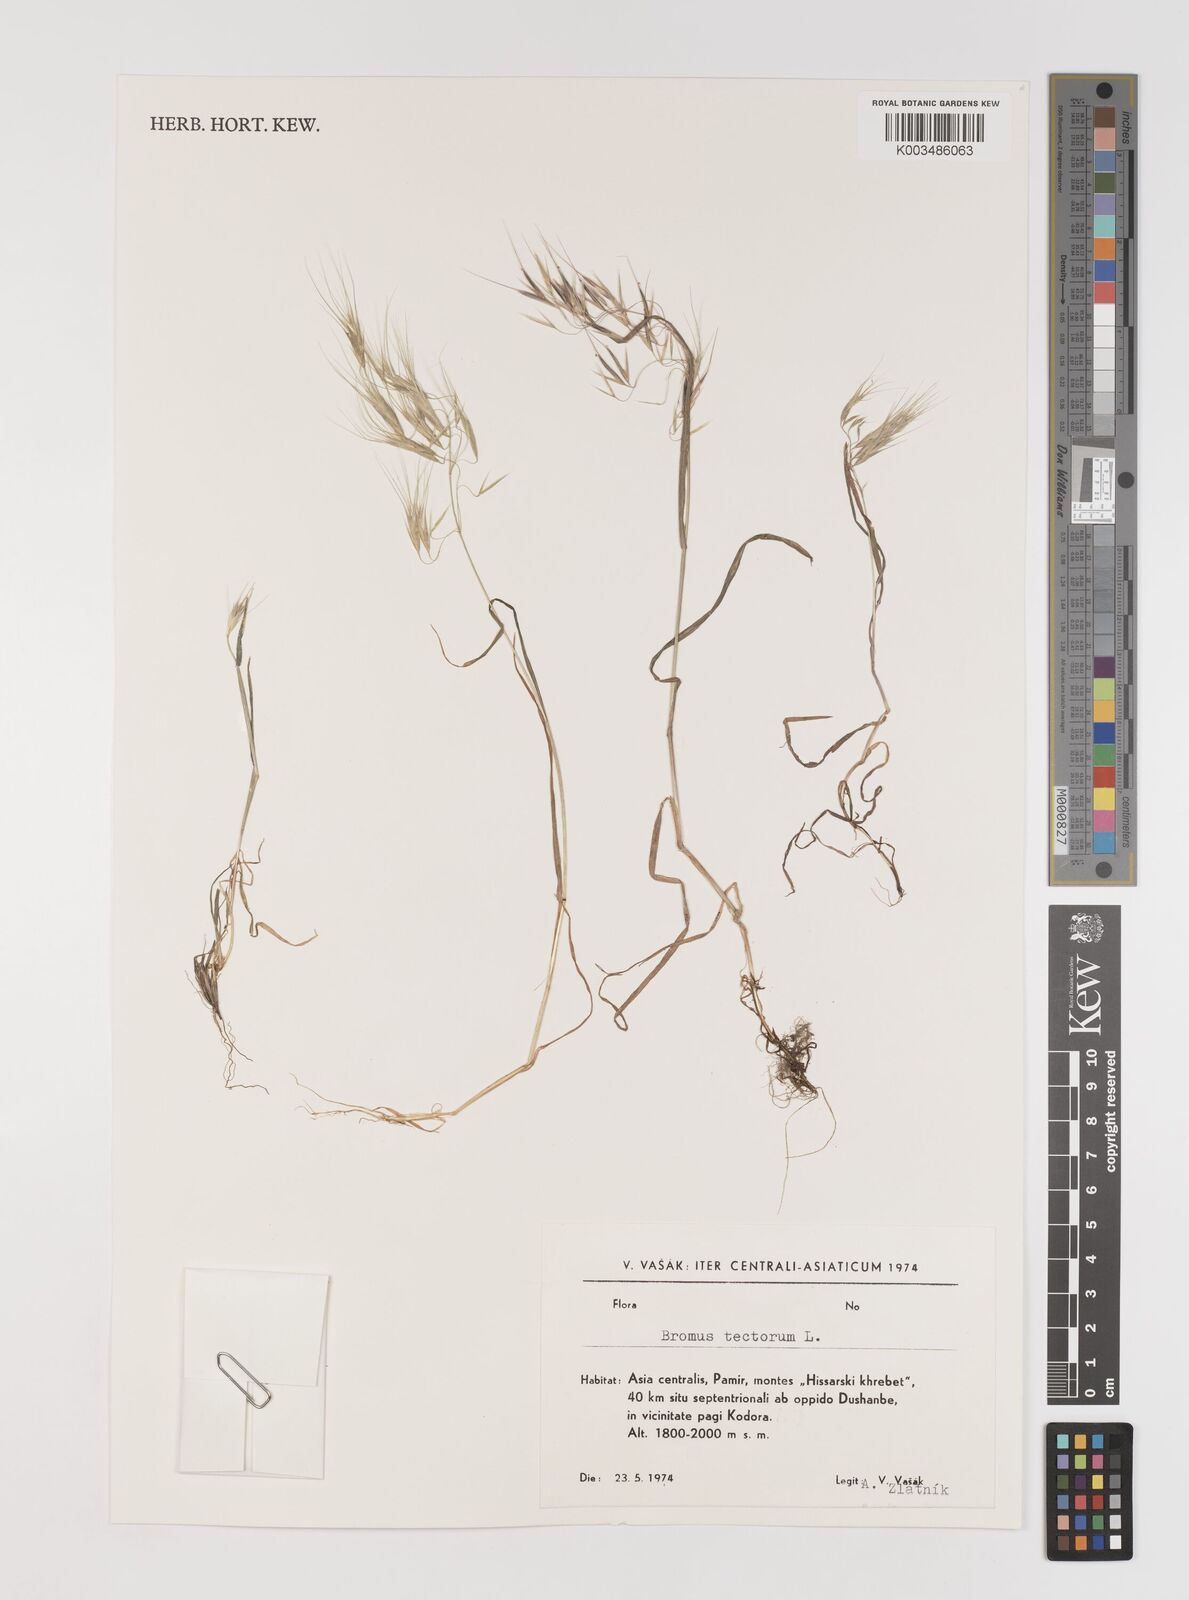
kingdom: Plantae
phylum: Tracheophyta
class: Liliopsida
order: Poales
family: Poaceae
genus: Bromus
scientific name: Bromus tectorum
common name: Cheatgrass
